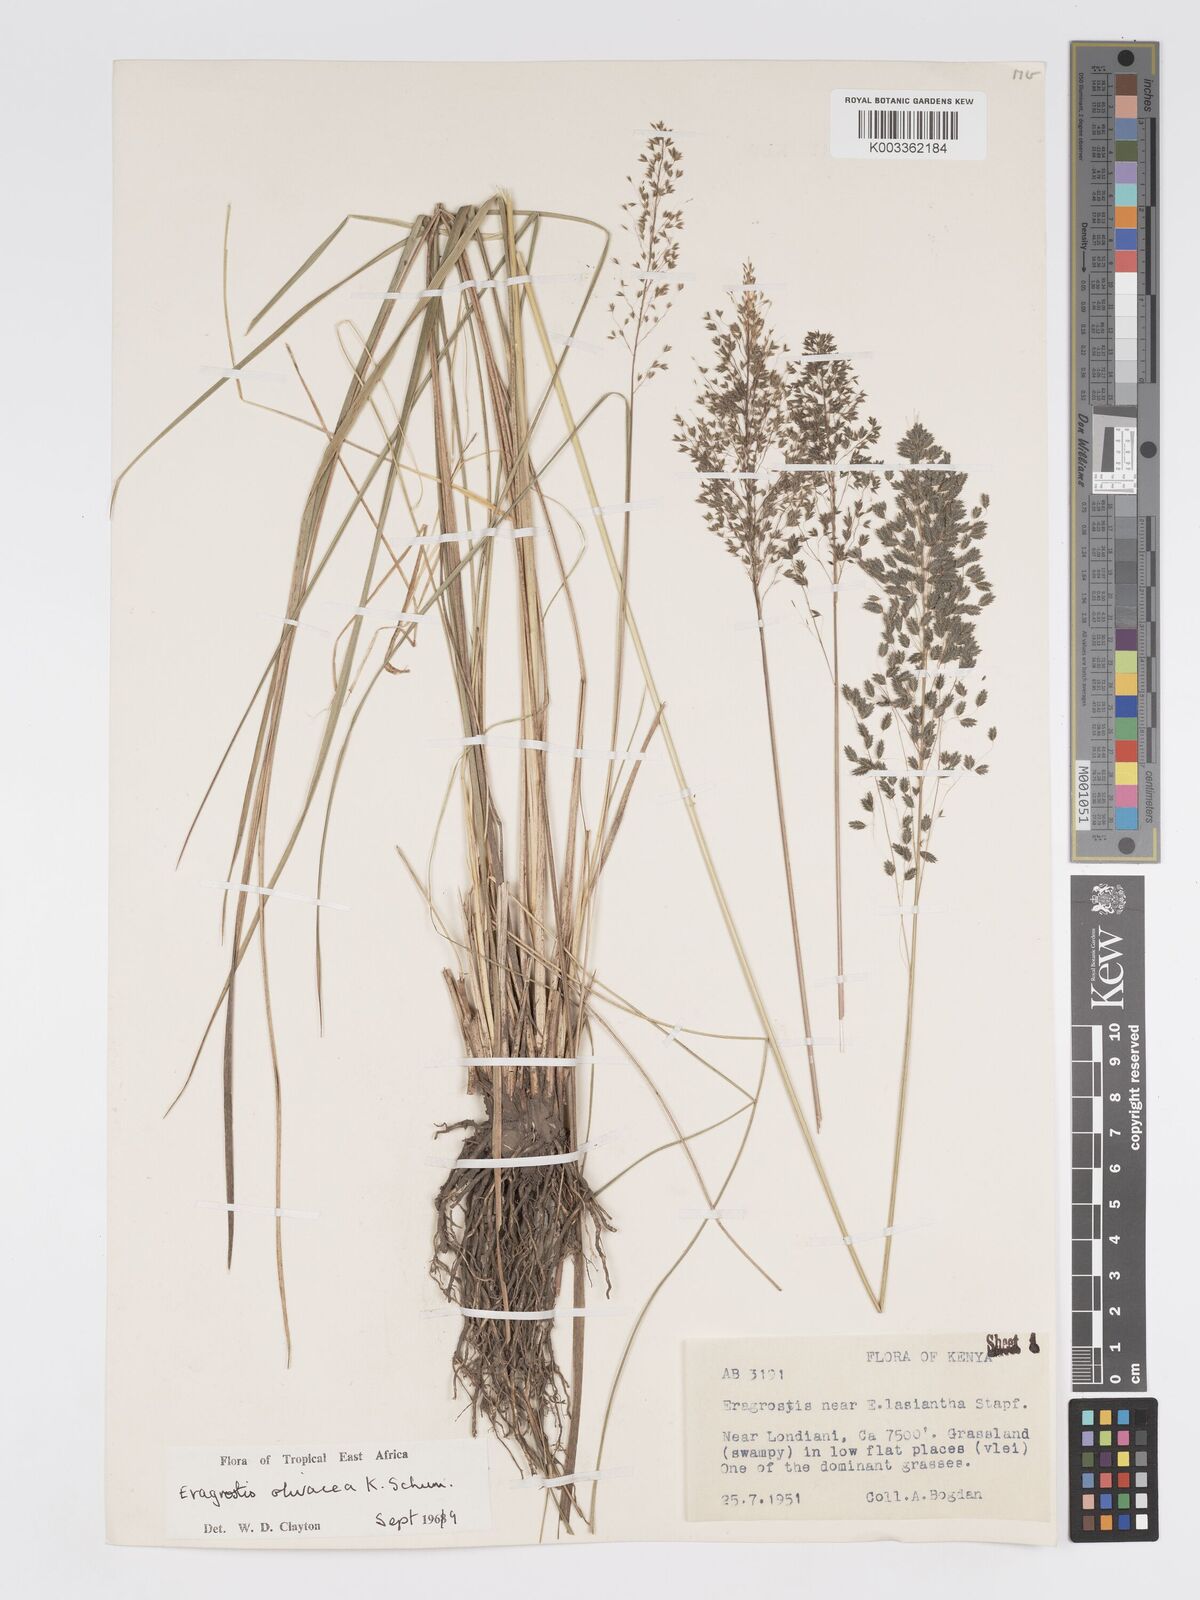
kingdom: Plantae
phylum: Tracheophyta
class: Liliopsida
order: Poales
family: Poaceae
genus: Eragrostis
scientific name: Eragrostis olivacea
